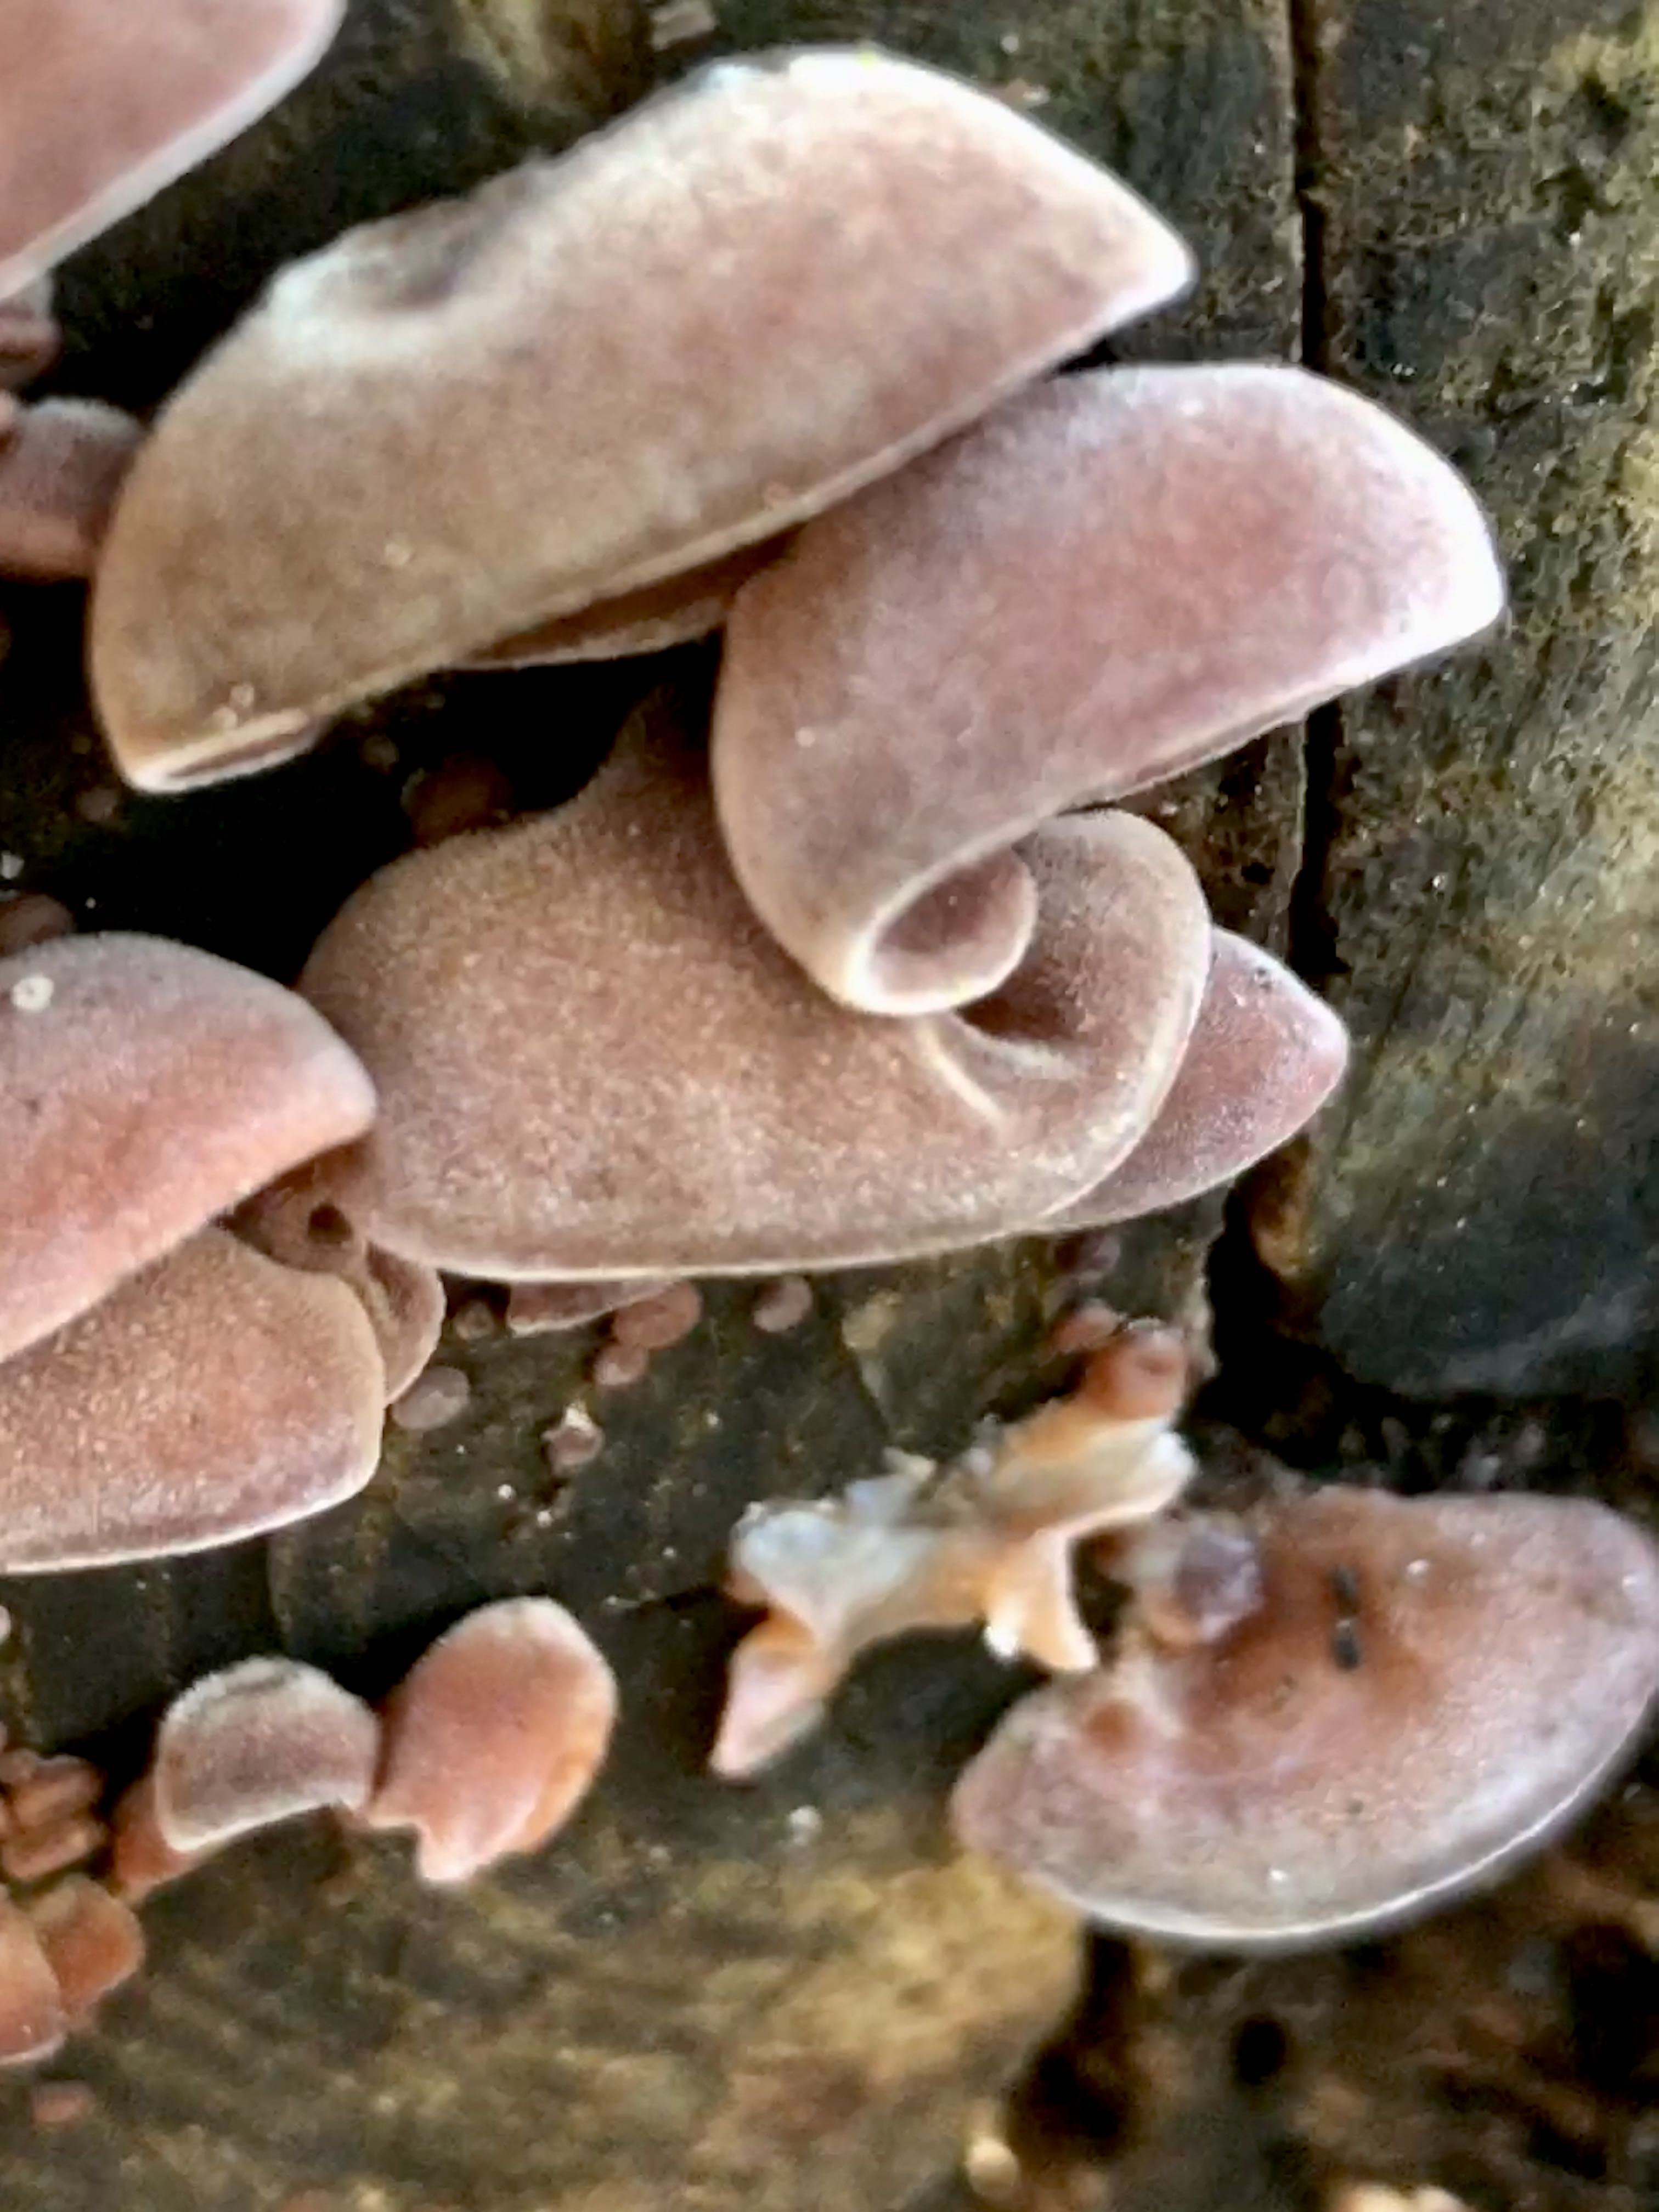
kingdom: Fungi
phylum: Basidiomycota
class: Agaricomycetes
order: Auriculariales
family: Auriculariaceae
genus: Auricularia
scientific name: Auricularia auricula-judae
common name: almindelig judasøre
